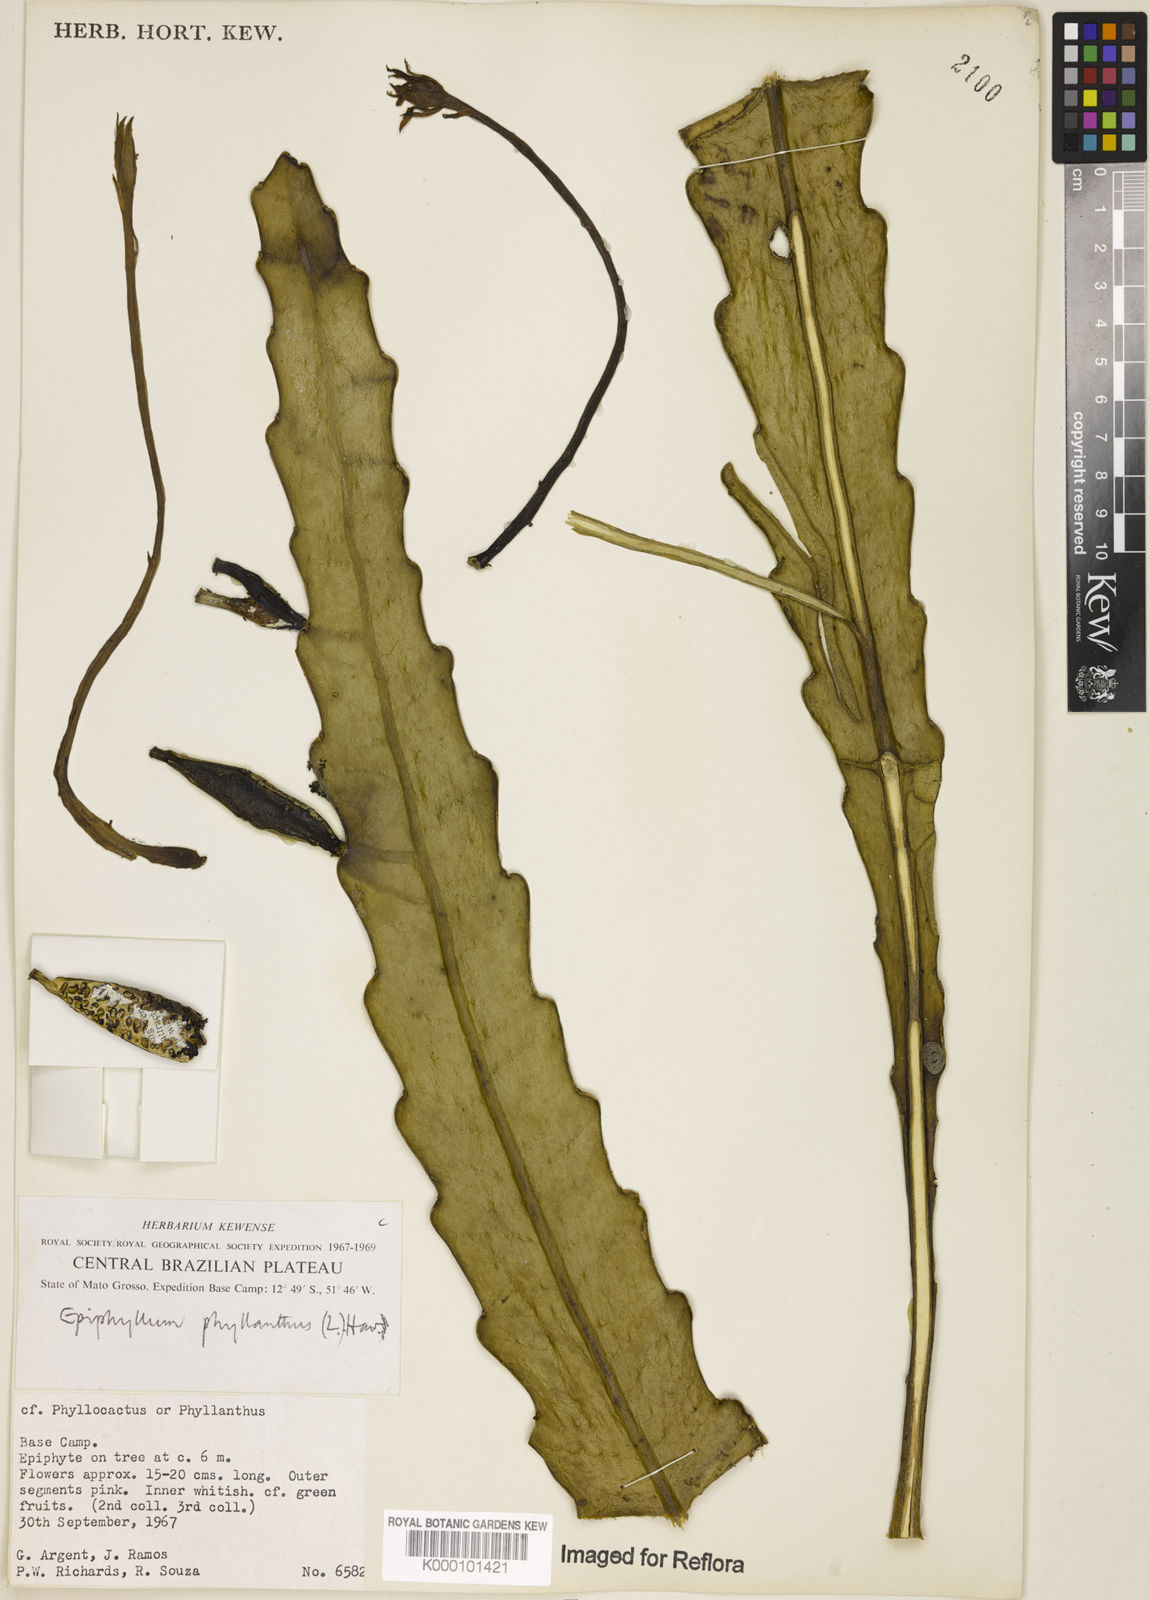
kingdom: Plantae
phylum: Tracheophyta
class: Magnoliopsida
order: Caryophyllales
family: Cactaceae
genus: Epiphyllum
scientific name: Epiphyllum phyllanthus
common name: Climbing cactus
